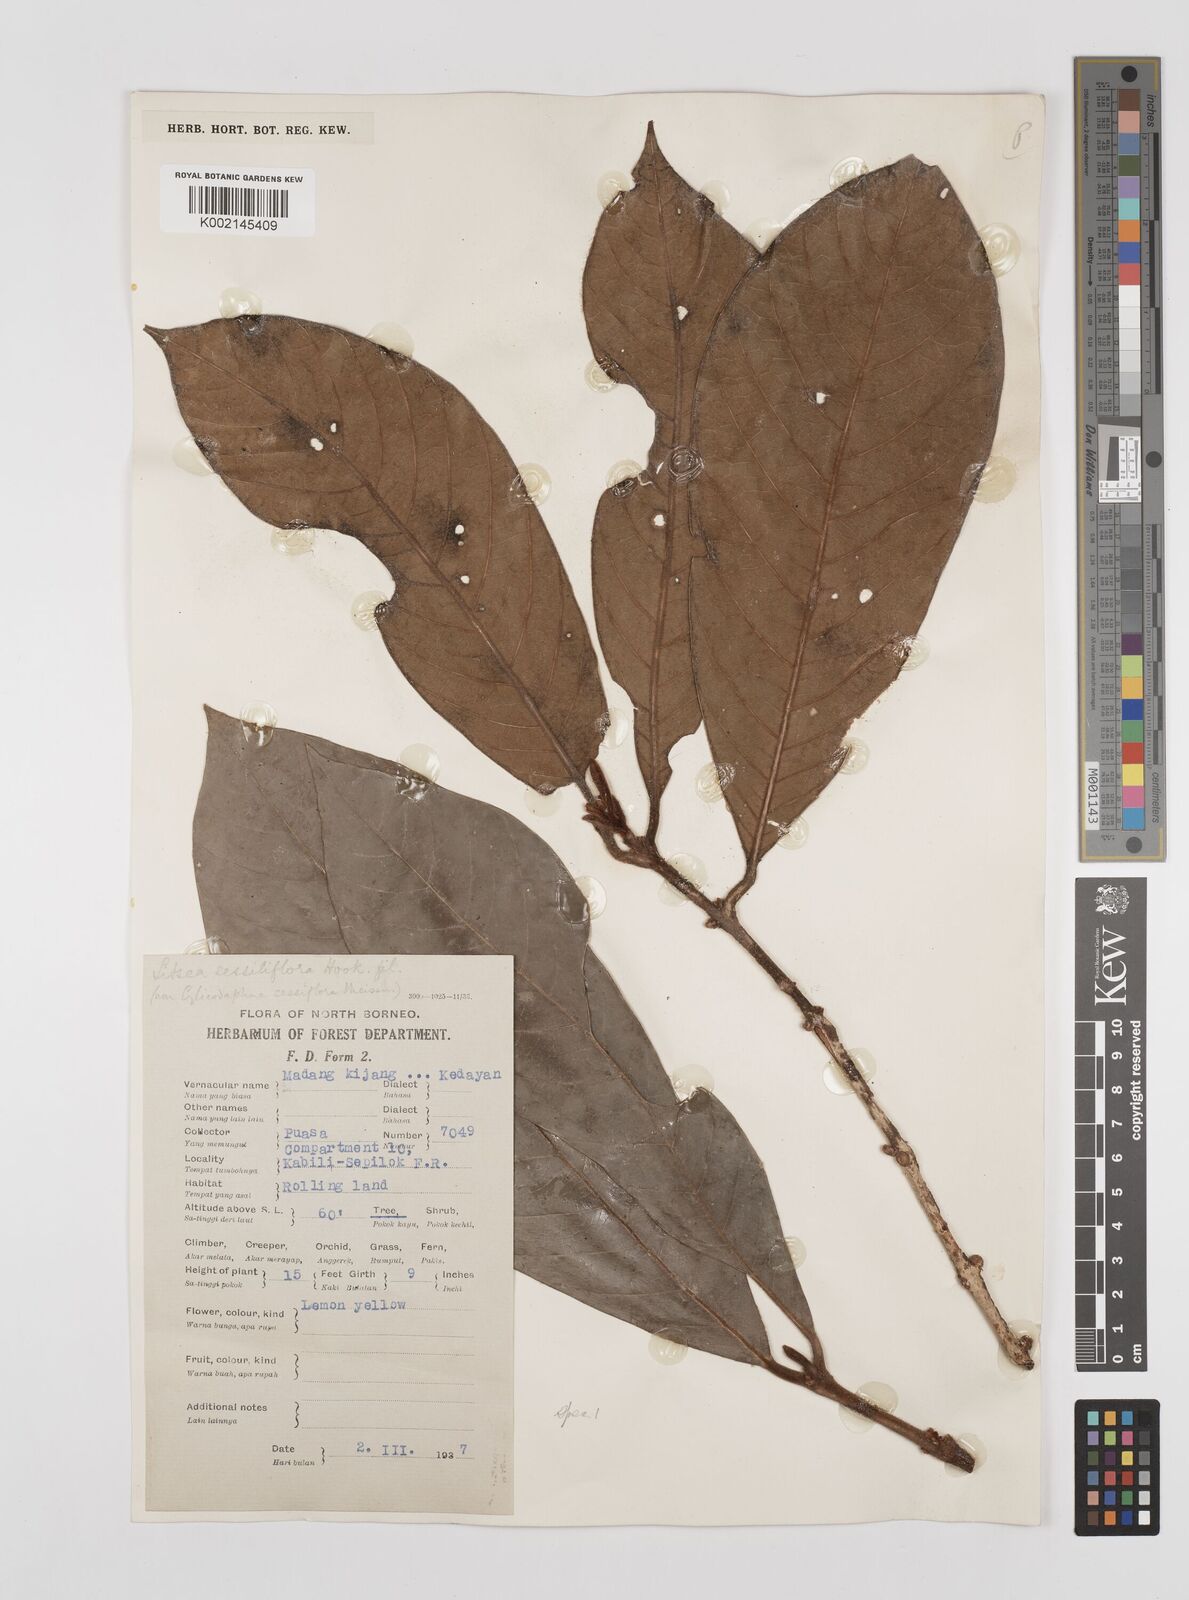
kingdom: Plantae
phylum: Tracheophyta
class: Magnoliopsida
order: Laurales
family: Lauraceae
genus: Litsea
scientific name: Litsea
